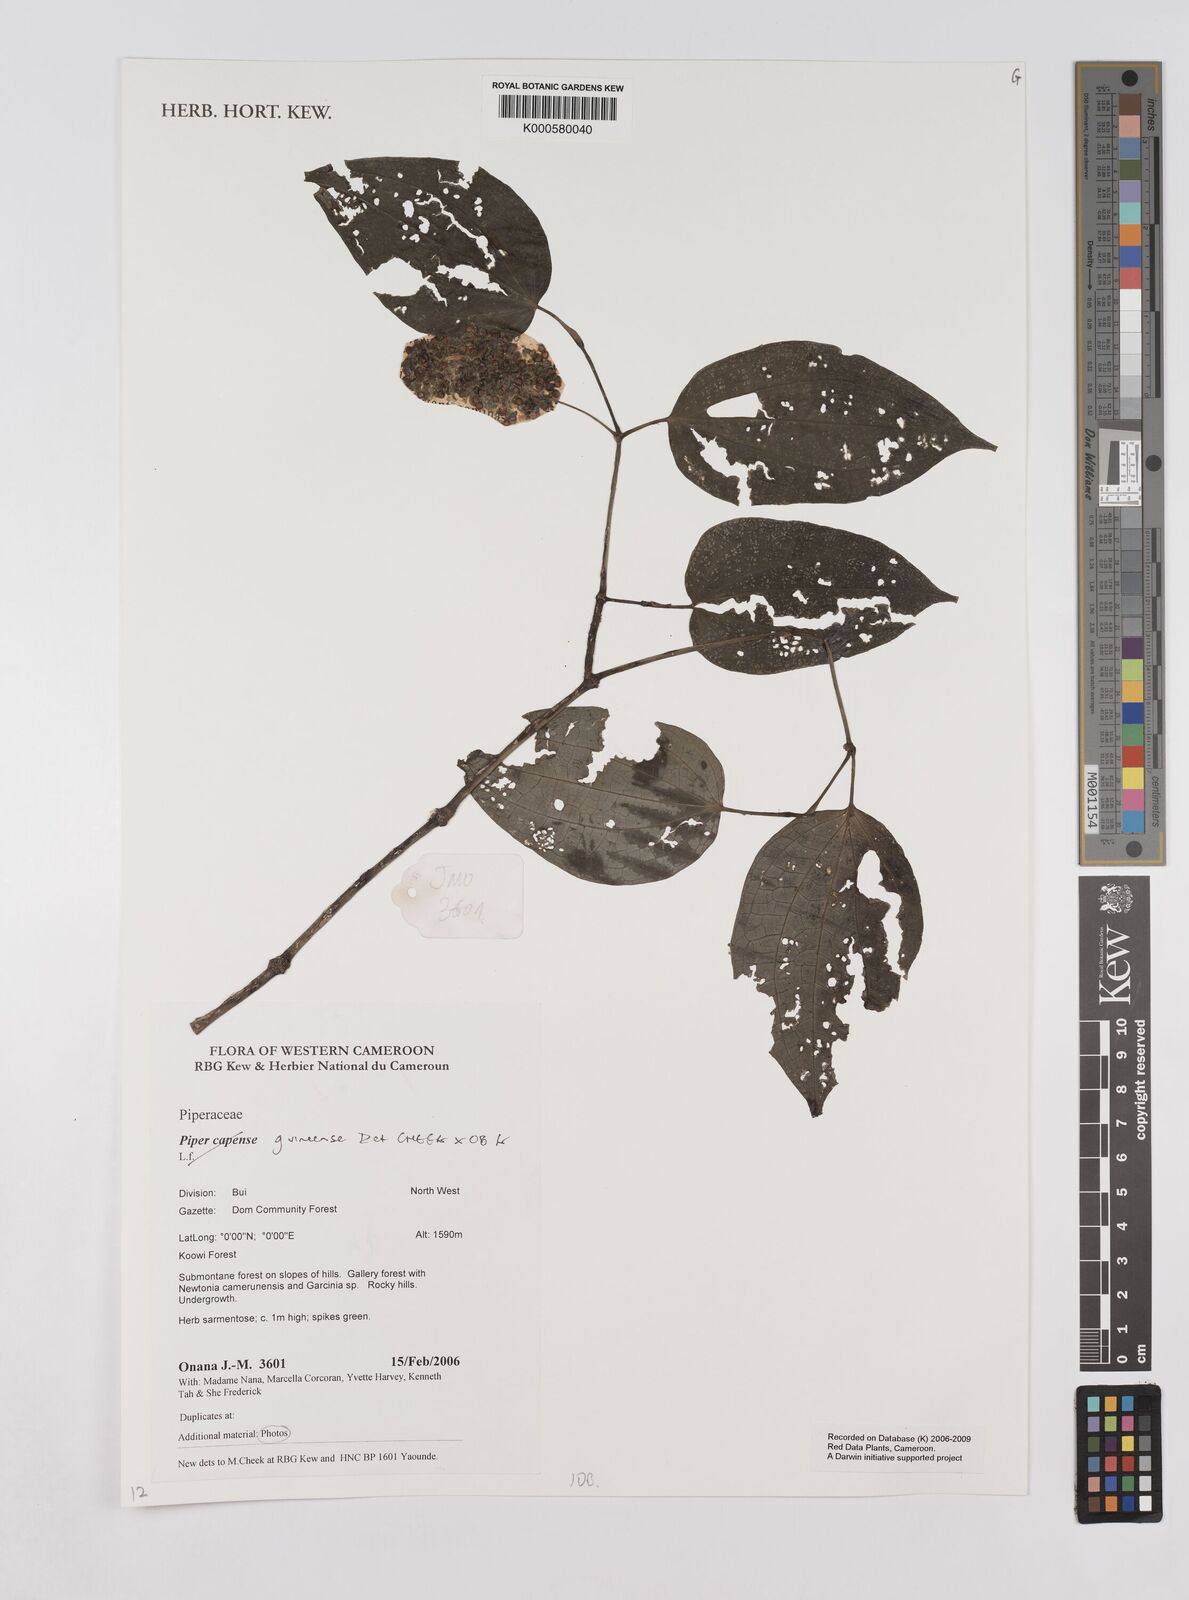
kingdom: Plantae
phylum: Tracheophyta
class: Magnoliopsida
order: Piperales
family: Piperaceae
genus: Piper
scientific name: Piper guineense
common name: Benin pepper
